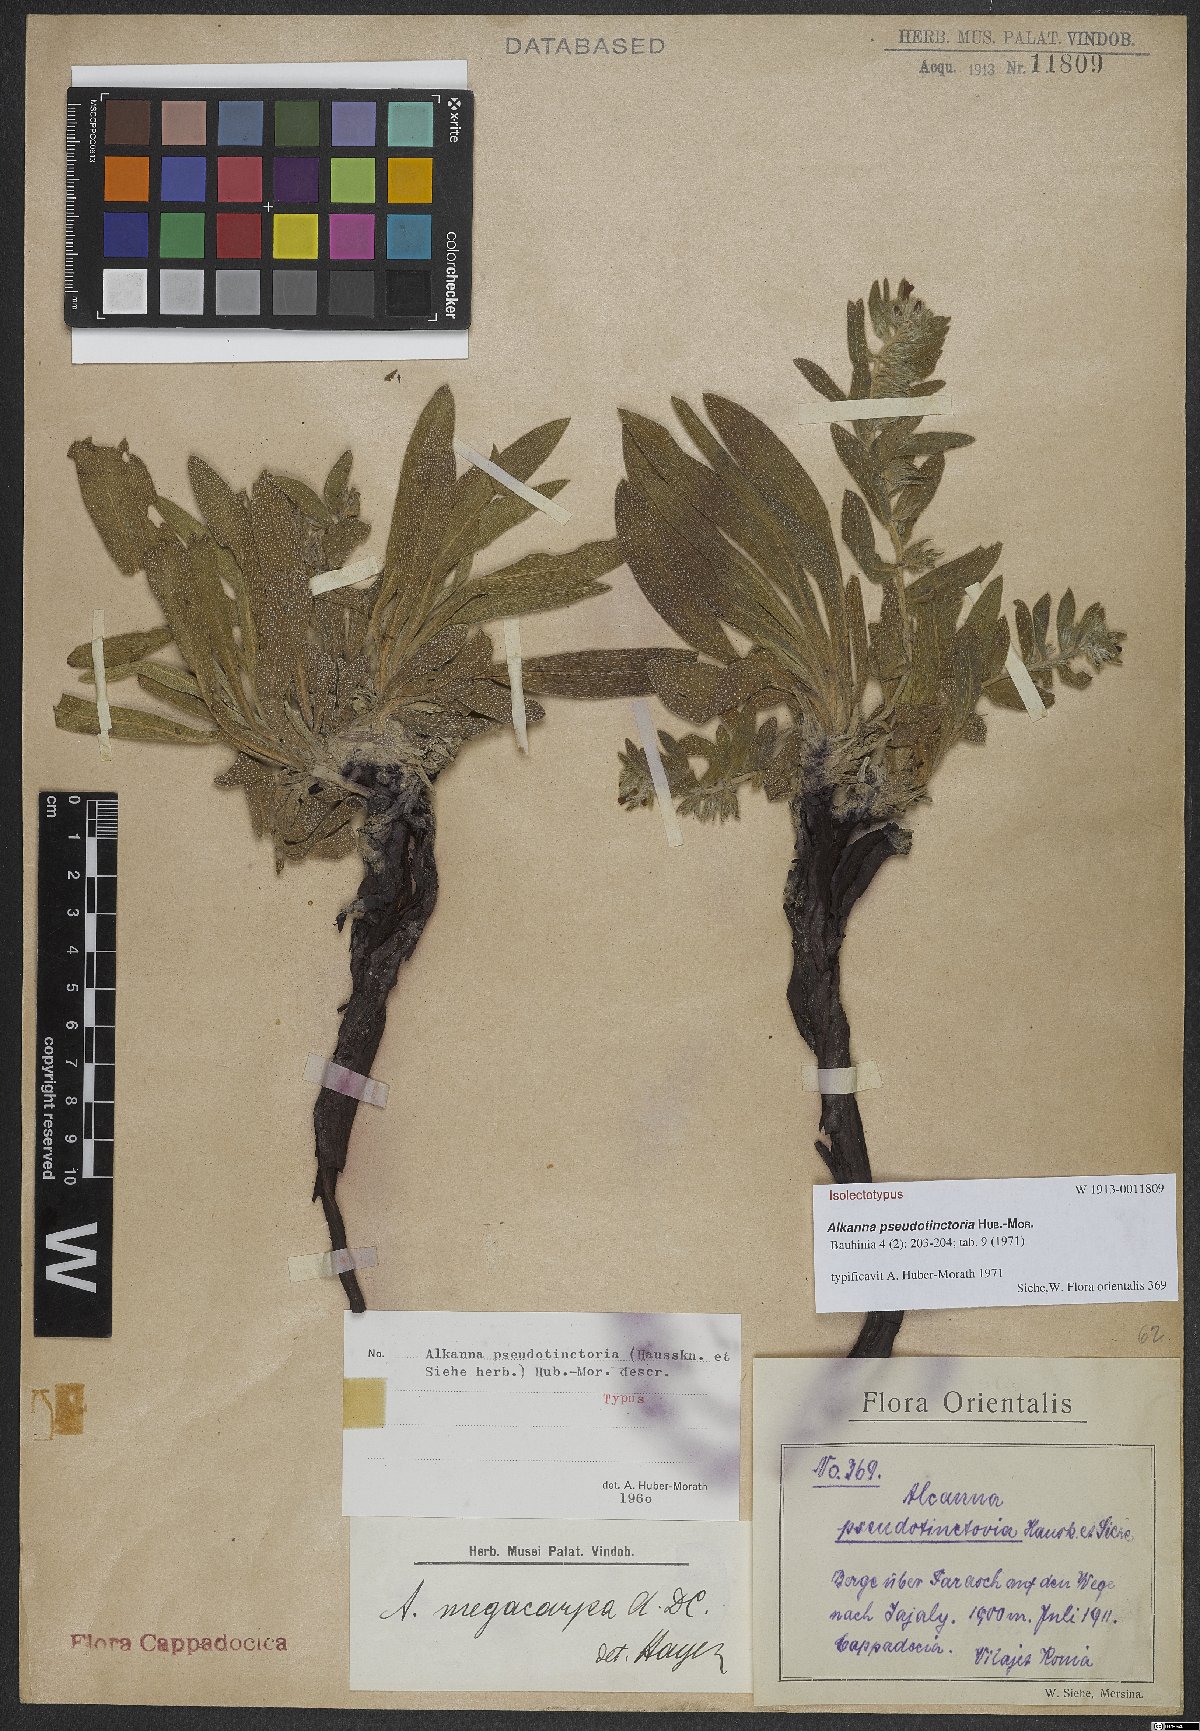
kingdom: Plantae
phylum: Tracheophyta
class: Magnoliopsida
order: Boraginales
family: Boraginaceae
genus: Alkanna
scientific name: Alkanna pseudotinctoria
